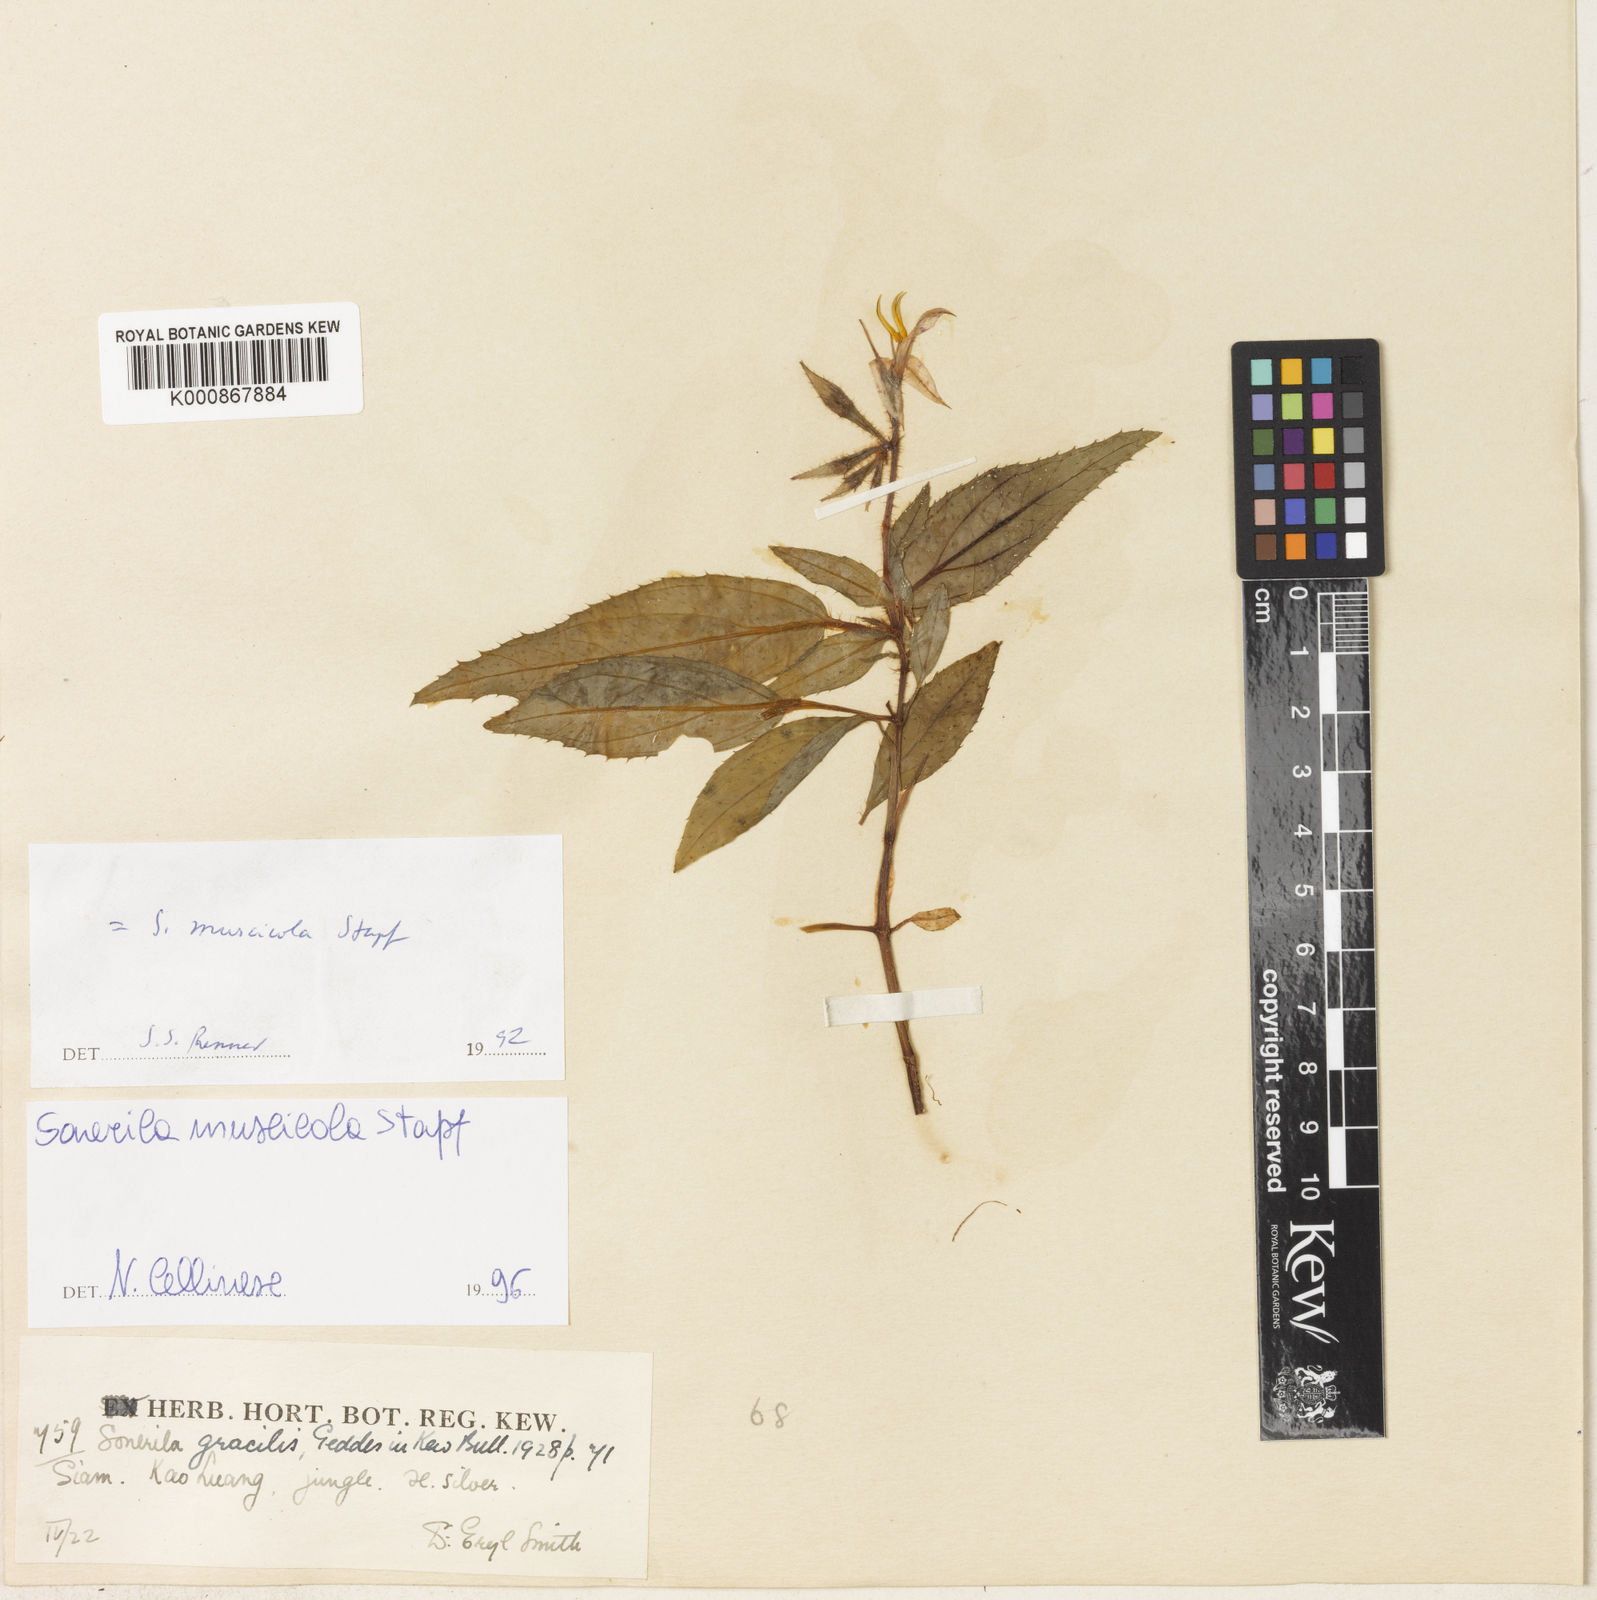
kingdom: Plantae
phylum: Tracheophyta
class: Magnoliopsida
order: Myrtales
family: Melastomataceae
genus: Sonerila
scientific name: Sonerila griffithii
